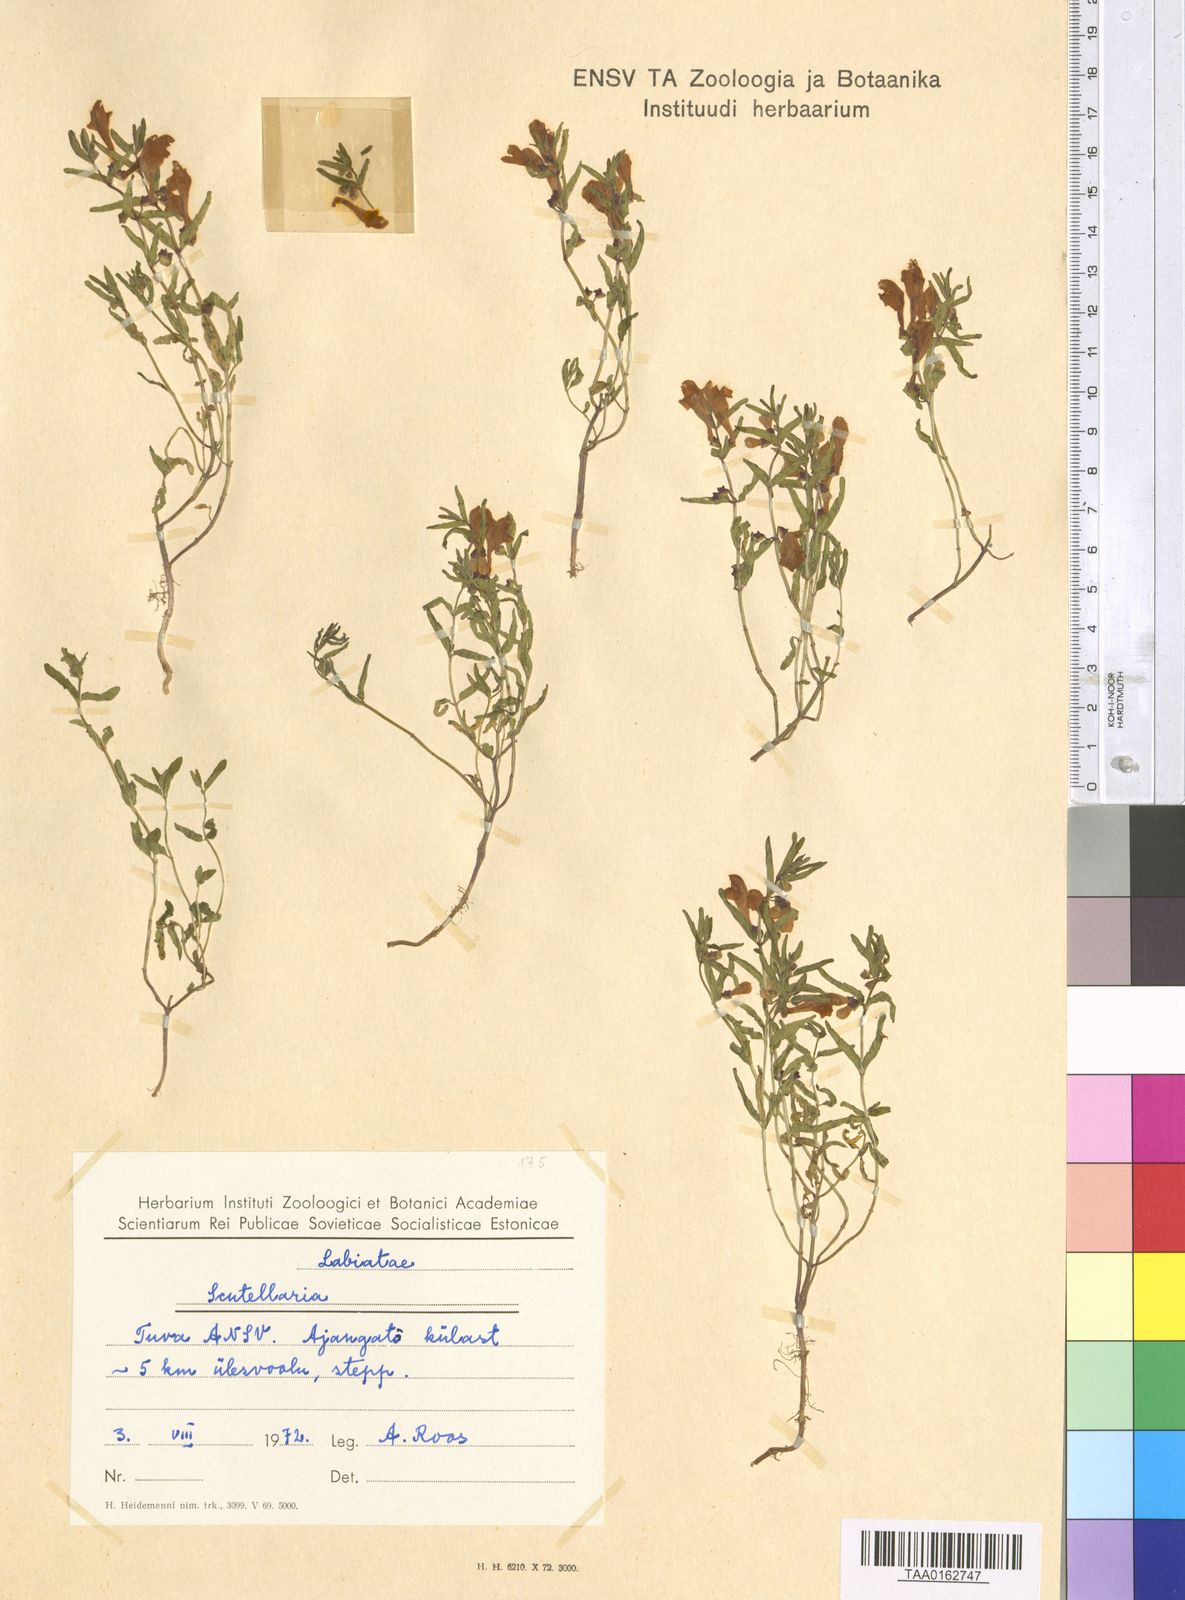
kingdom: Plantae
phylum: Tracheophyta
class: Magnoliopsida
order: Lamiales
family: Lamiaceae
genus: Scutellaria
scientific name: Scutellaria
